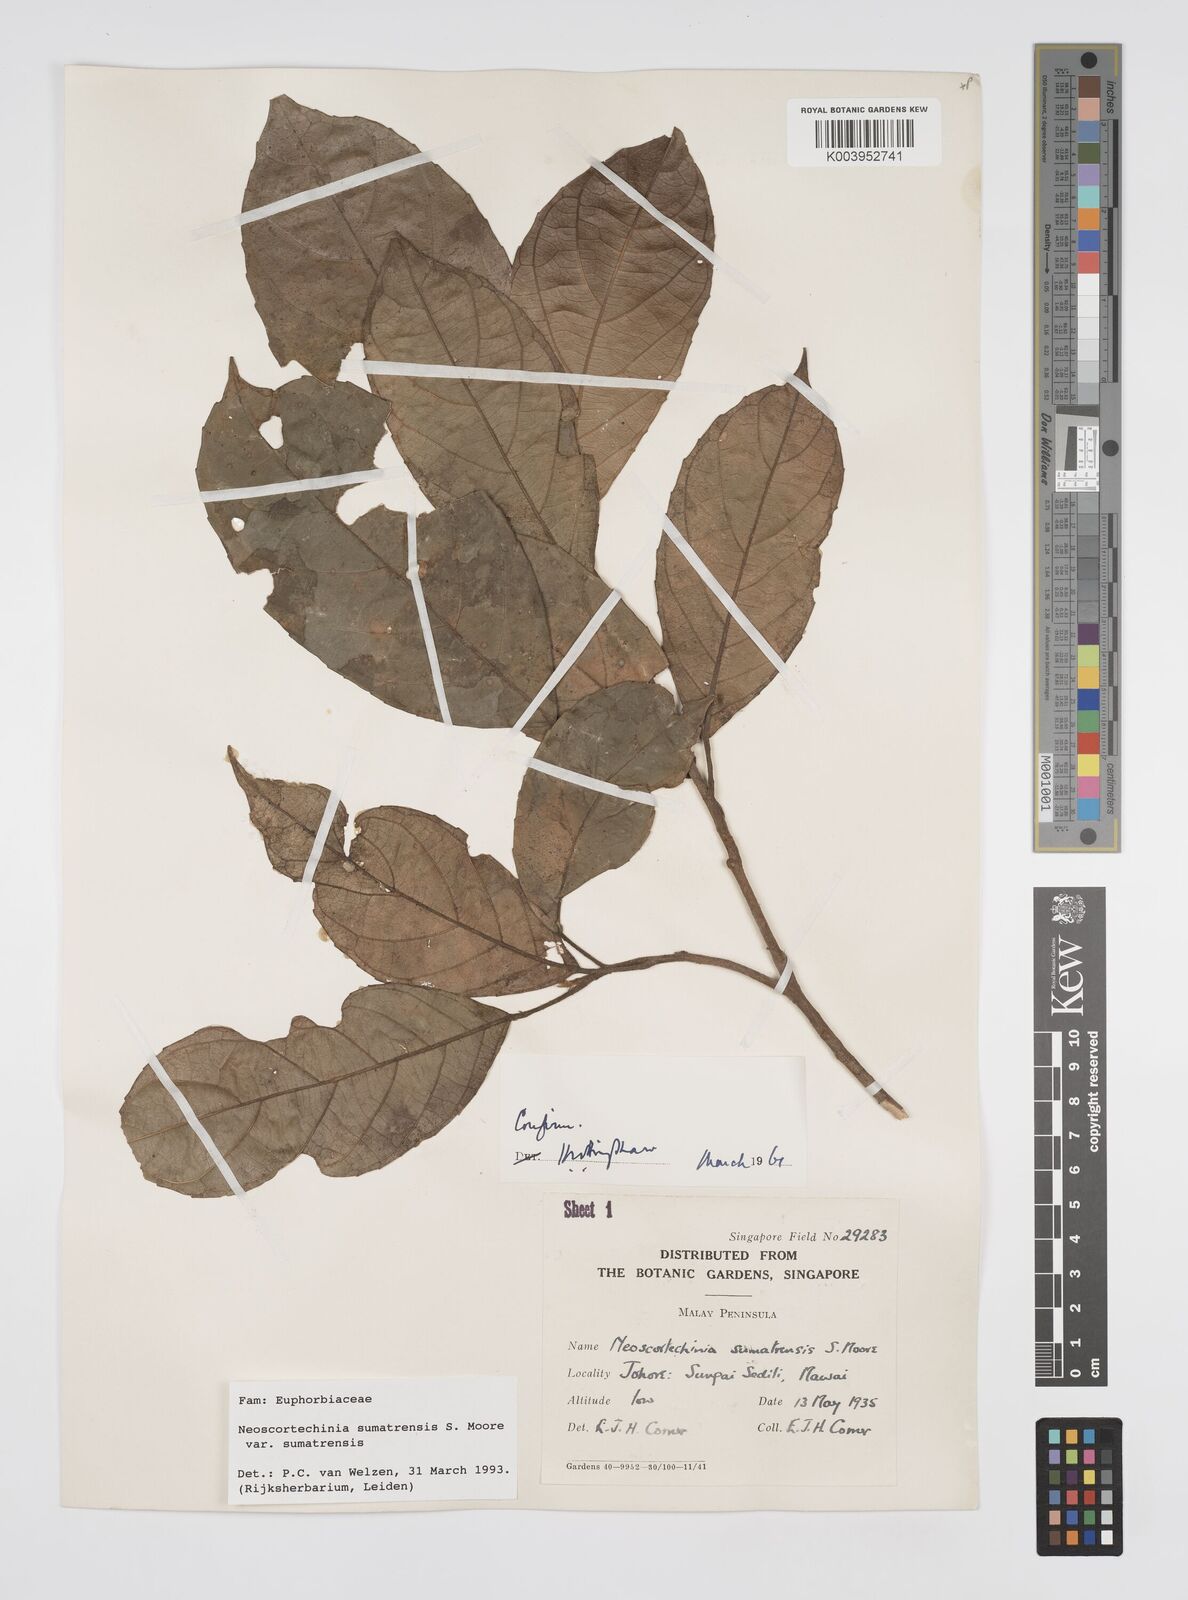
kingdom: Plantae
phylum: Tracheophyta
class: Magnoliopsida
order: Malpighiales
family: Euphorbiaceae
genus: Neoscortechinia
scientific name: Neoscortechinia sumatrensis
